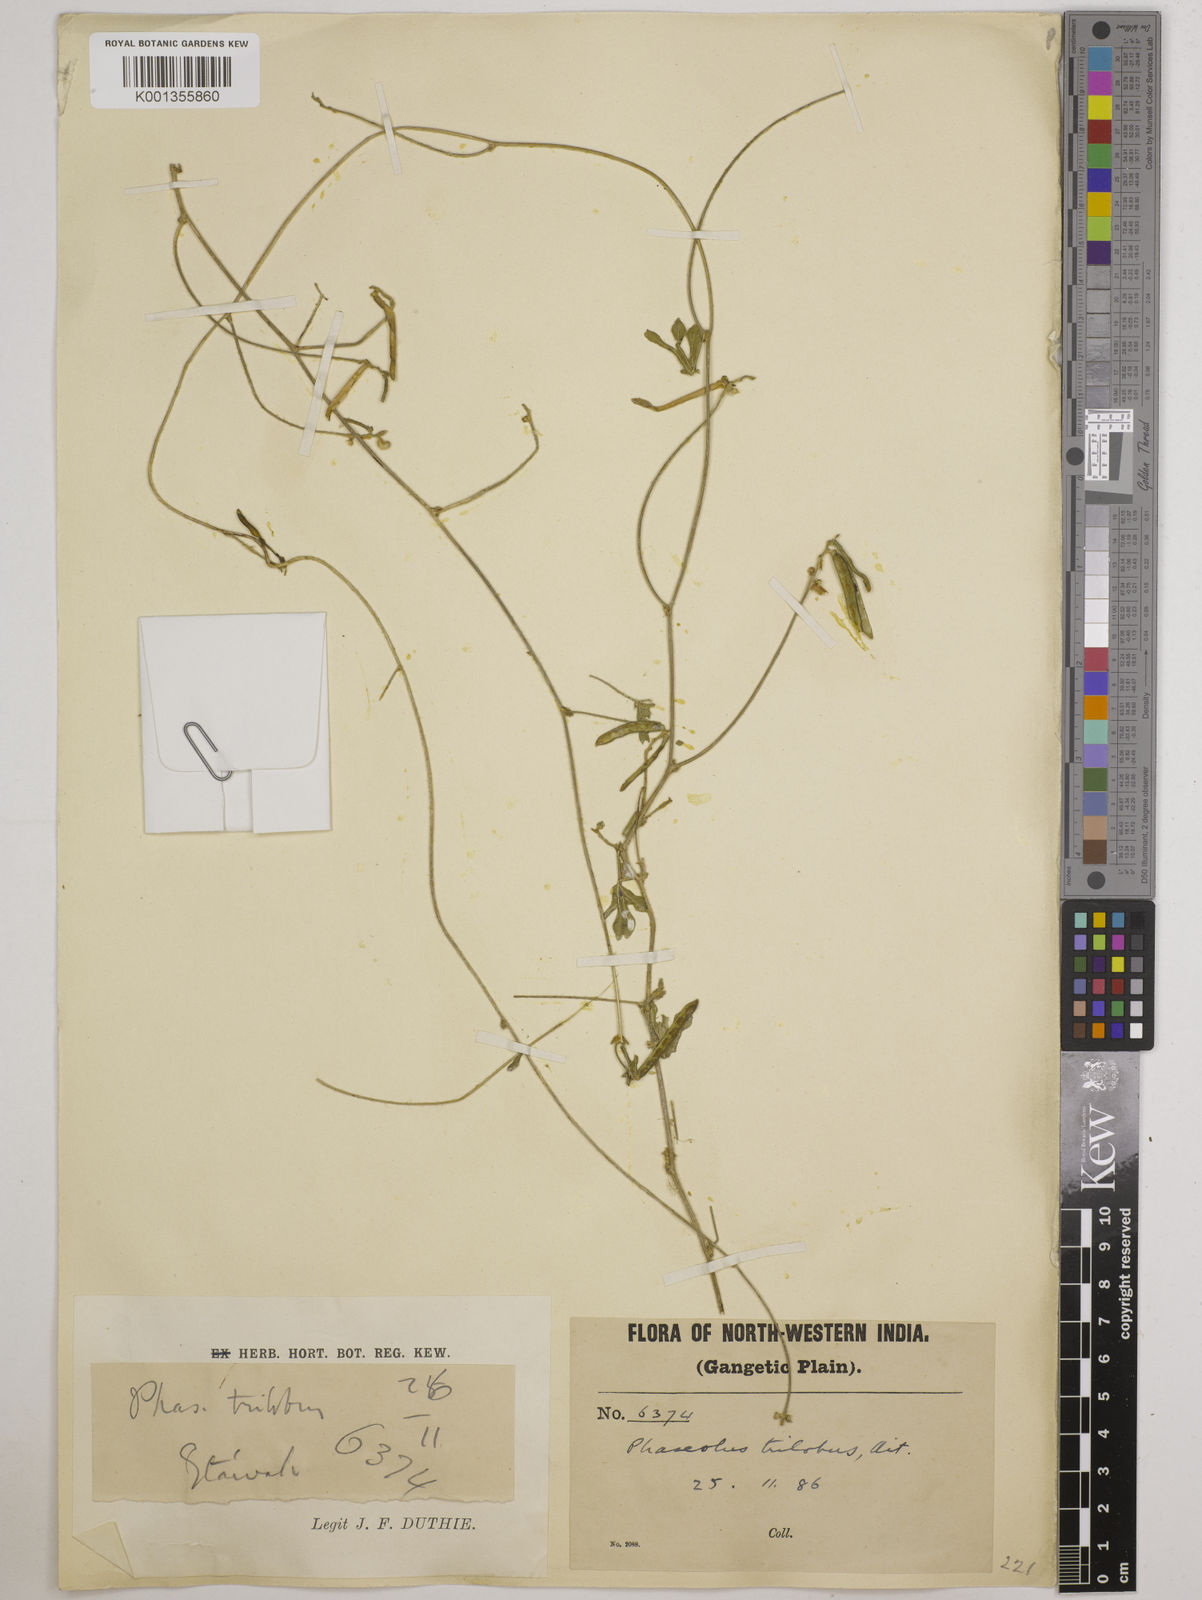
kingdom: Plantae
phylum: Tracheophyta
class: Magnoliopsida
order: Fabales
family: Fabaceae
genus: Vigna
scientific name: Vigna trilobata
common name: Jungli-bean
